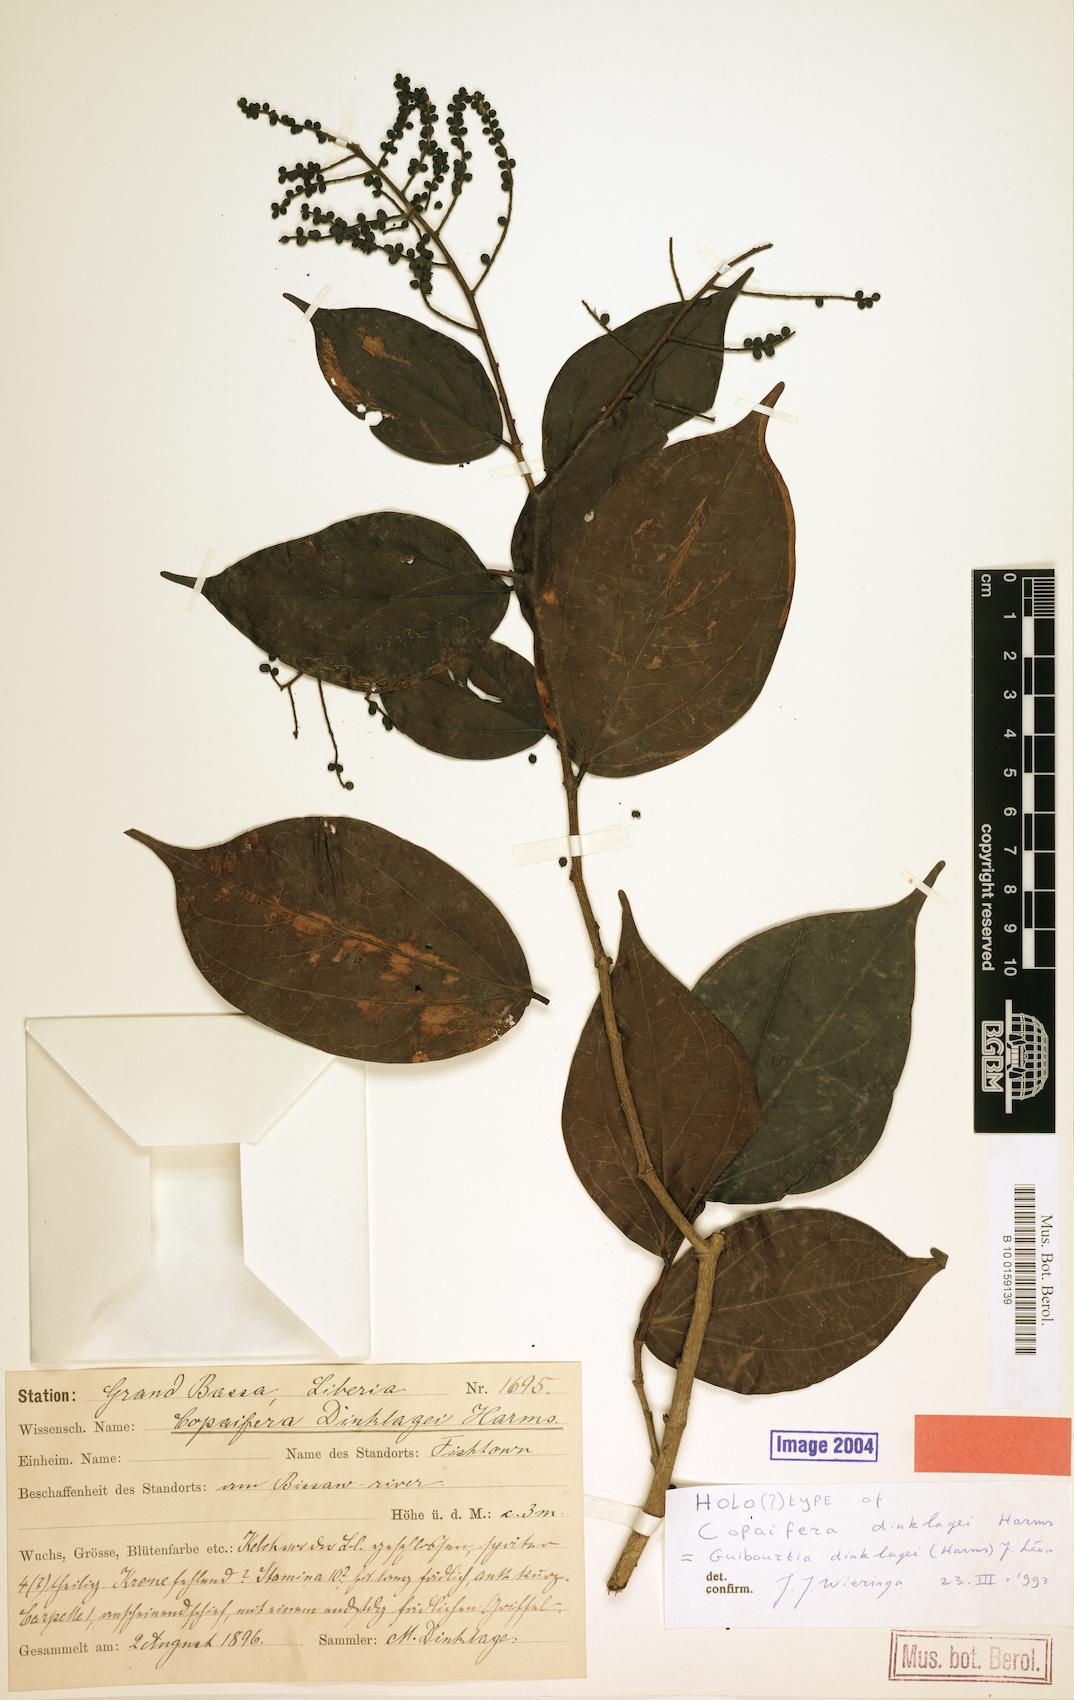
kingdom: Plantae
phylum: Tracheophyta
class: Magnoliopsida
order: Fabales
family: Fabaceae
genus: Guibourtia
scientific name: Guibourtia dinklagei
